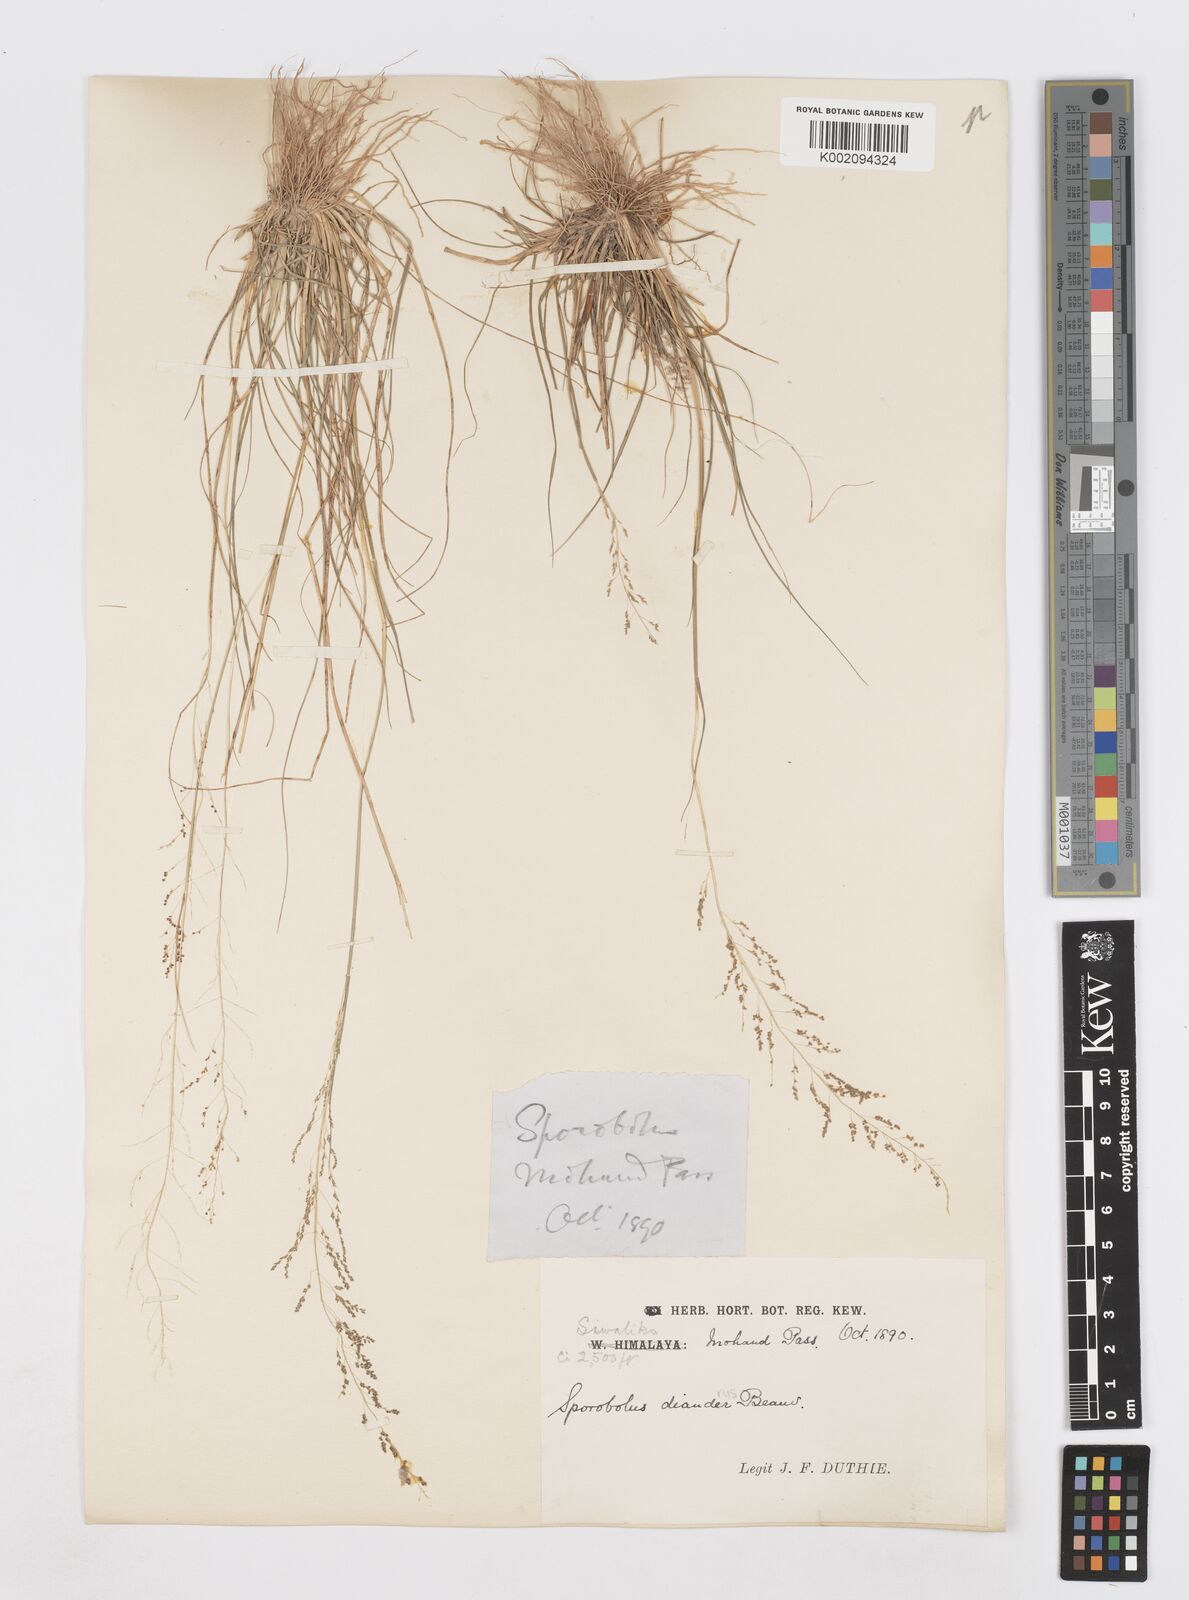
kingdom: Plantae
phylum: Tracheophyta
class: Liliopsida
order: Poales
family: Poaceae
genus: Sporobolus
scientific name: Sporobolus diandrus
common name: Tussock dropseed
